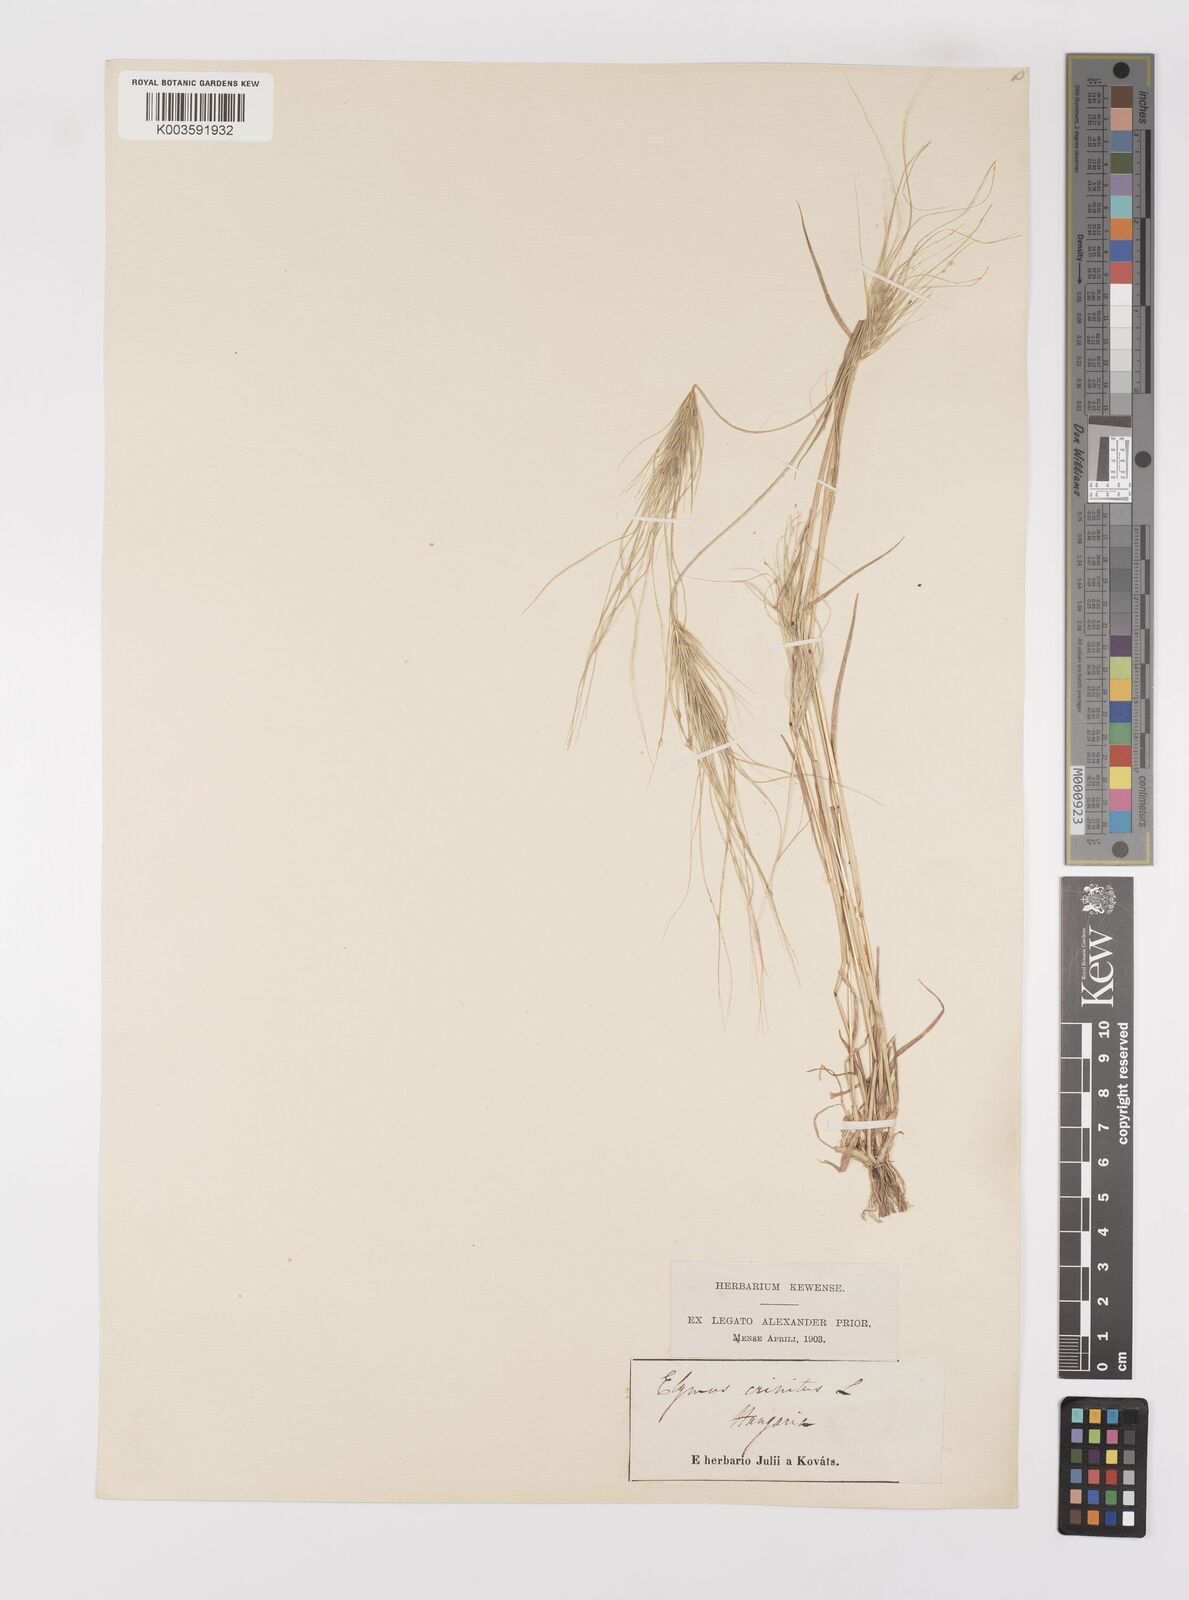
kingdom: Plantae
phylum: Tracheophyta
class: Liliopsida
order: Poales
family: Poaceae
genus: Taeniatherum
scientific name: Taeniatherum caput-medusae
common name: Medusahead
